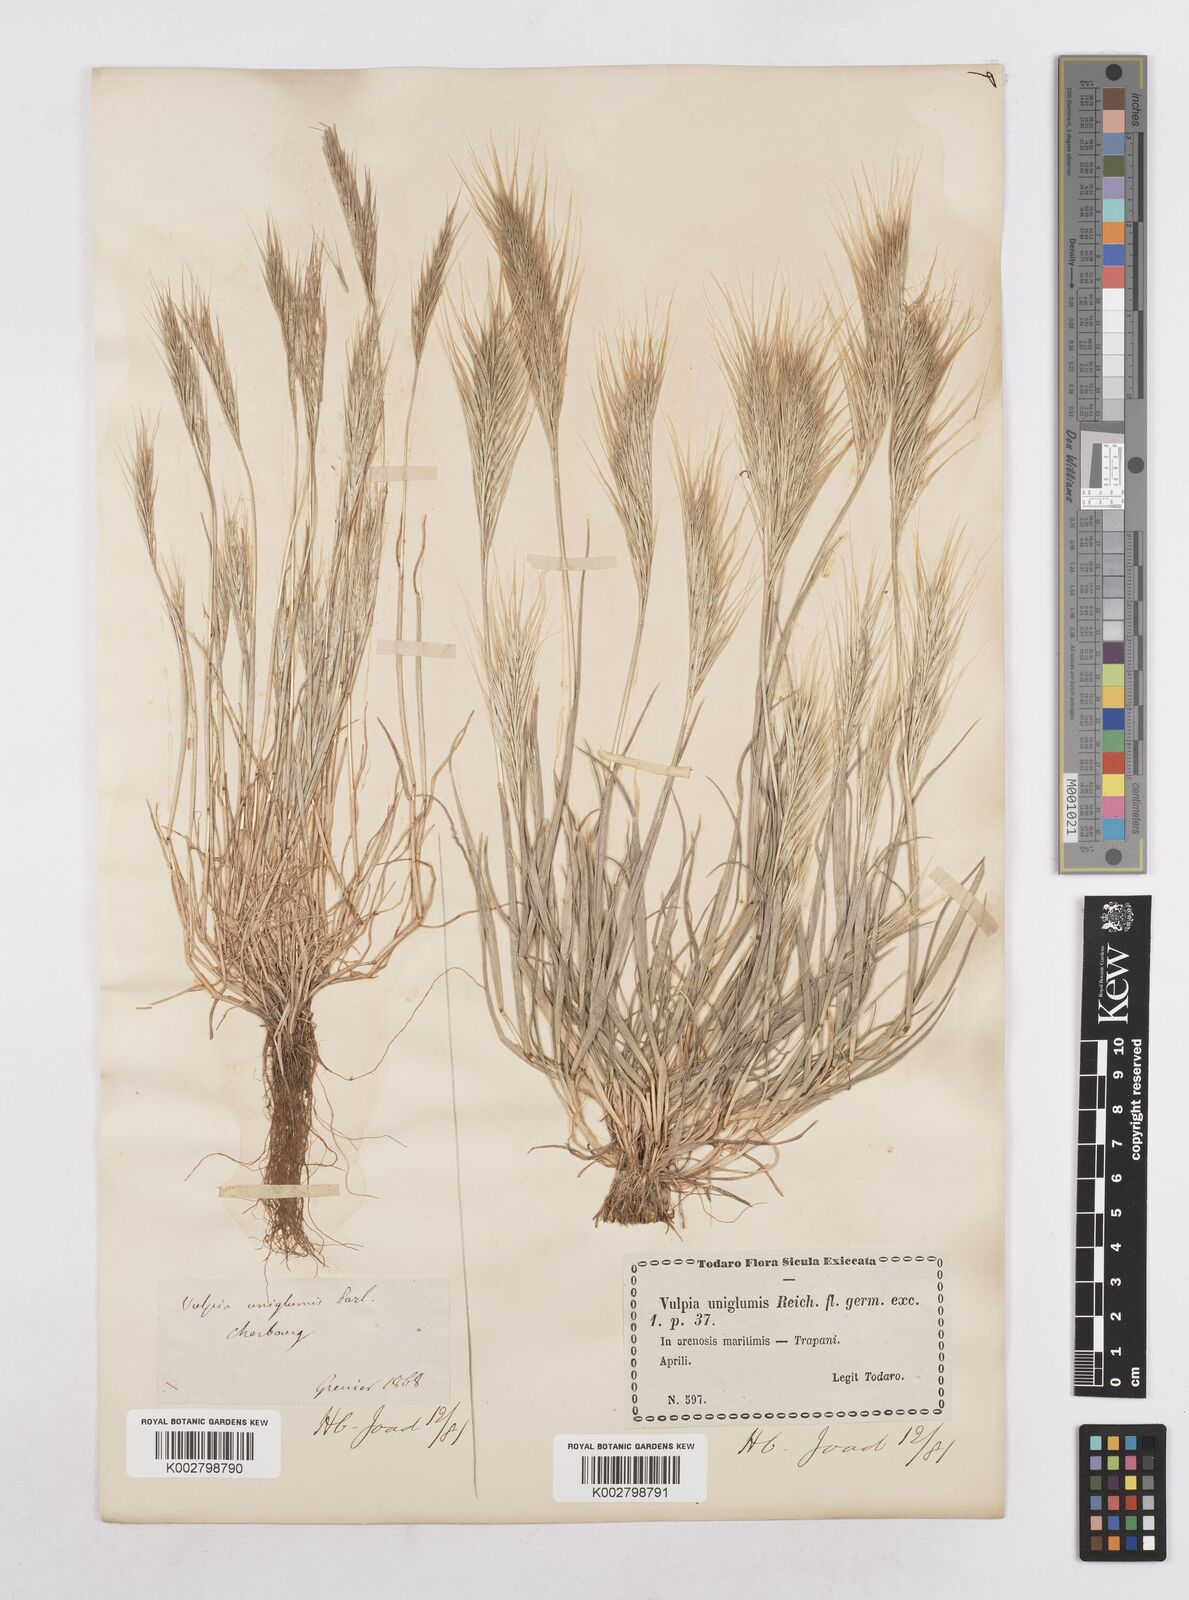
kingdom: Plantae
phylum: Tracheophyta
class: Liliopsida
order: Poales
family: Poaceae
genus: Festuca
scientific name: Festuca fasciculata
